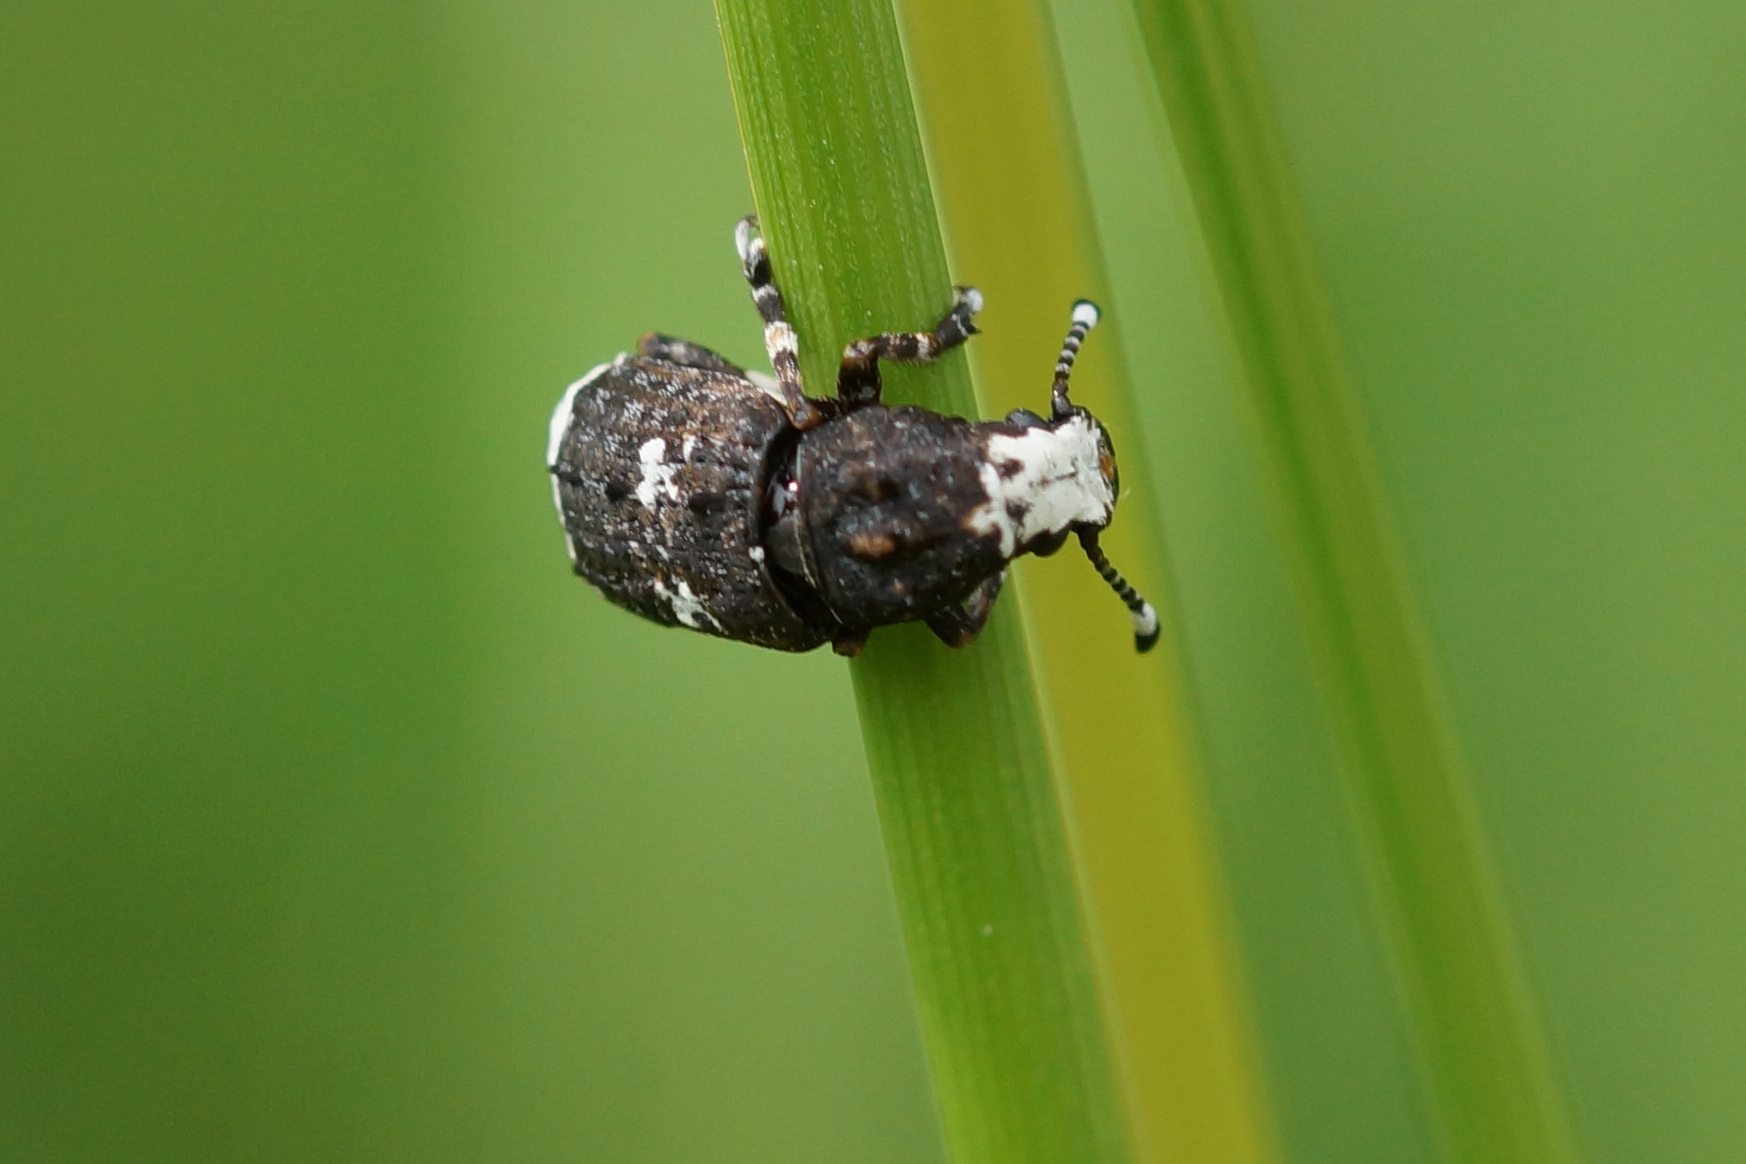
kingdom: Animalia
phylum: Arthropoda
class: Insecta
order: Coleoptera
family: Anthribidae
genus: Platystomos
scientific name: Platystomos albinus
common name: Hvidhovedet bredsnudebille
